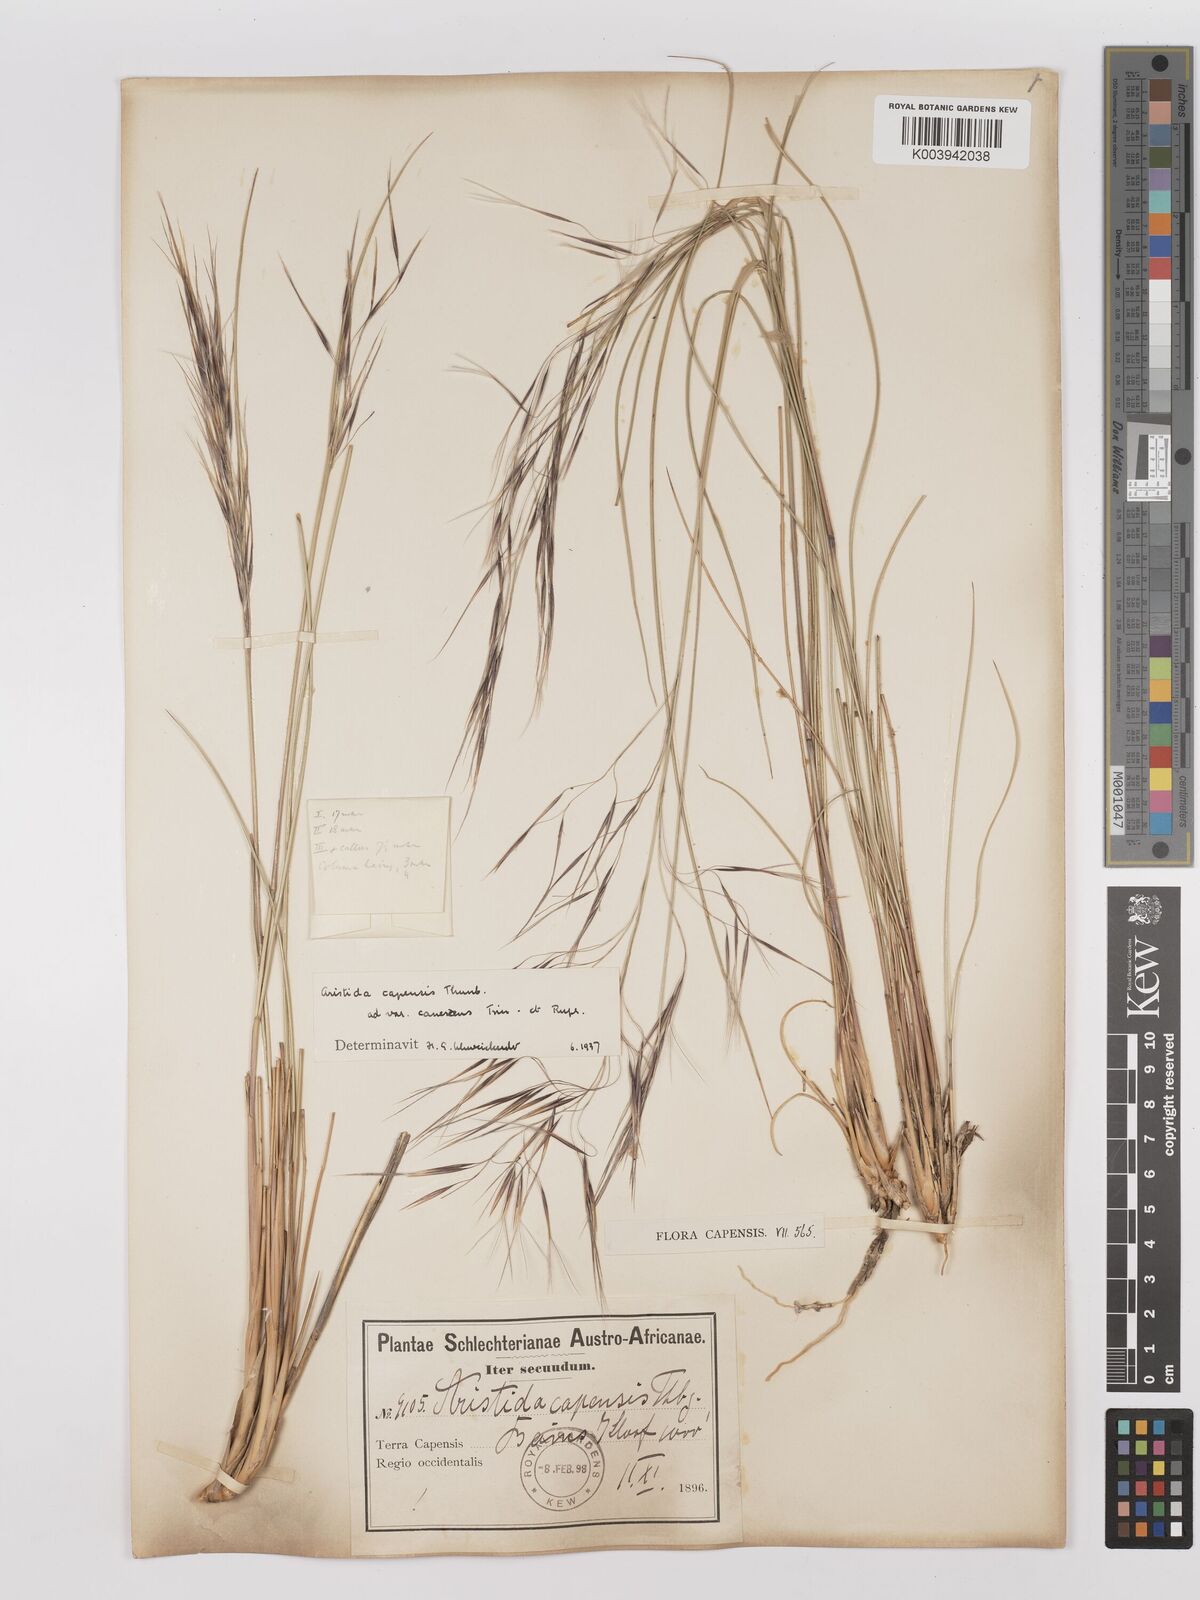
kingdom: Plantae
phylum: Tracheophyta
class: Liliopsida
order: Poales
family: Poaceae
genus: Stipagrostis
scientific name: Stipagrostis zeyheri
